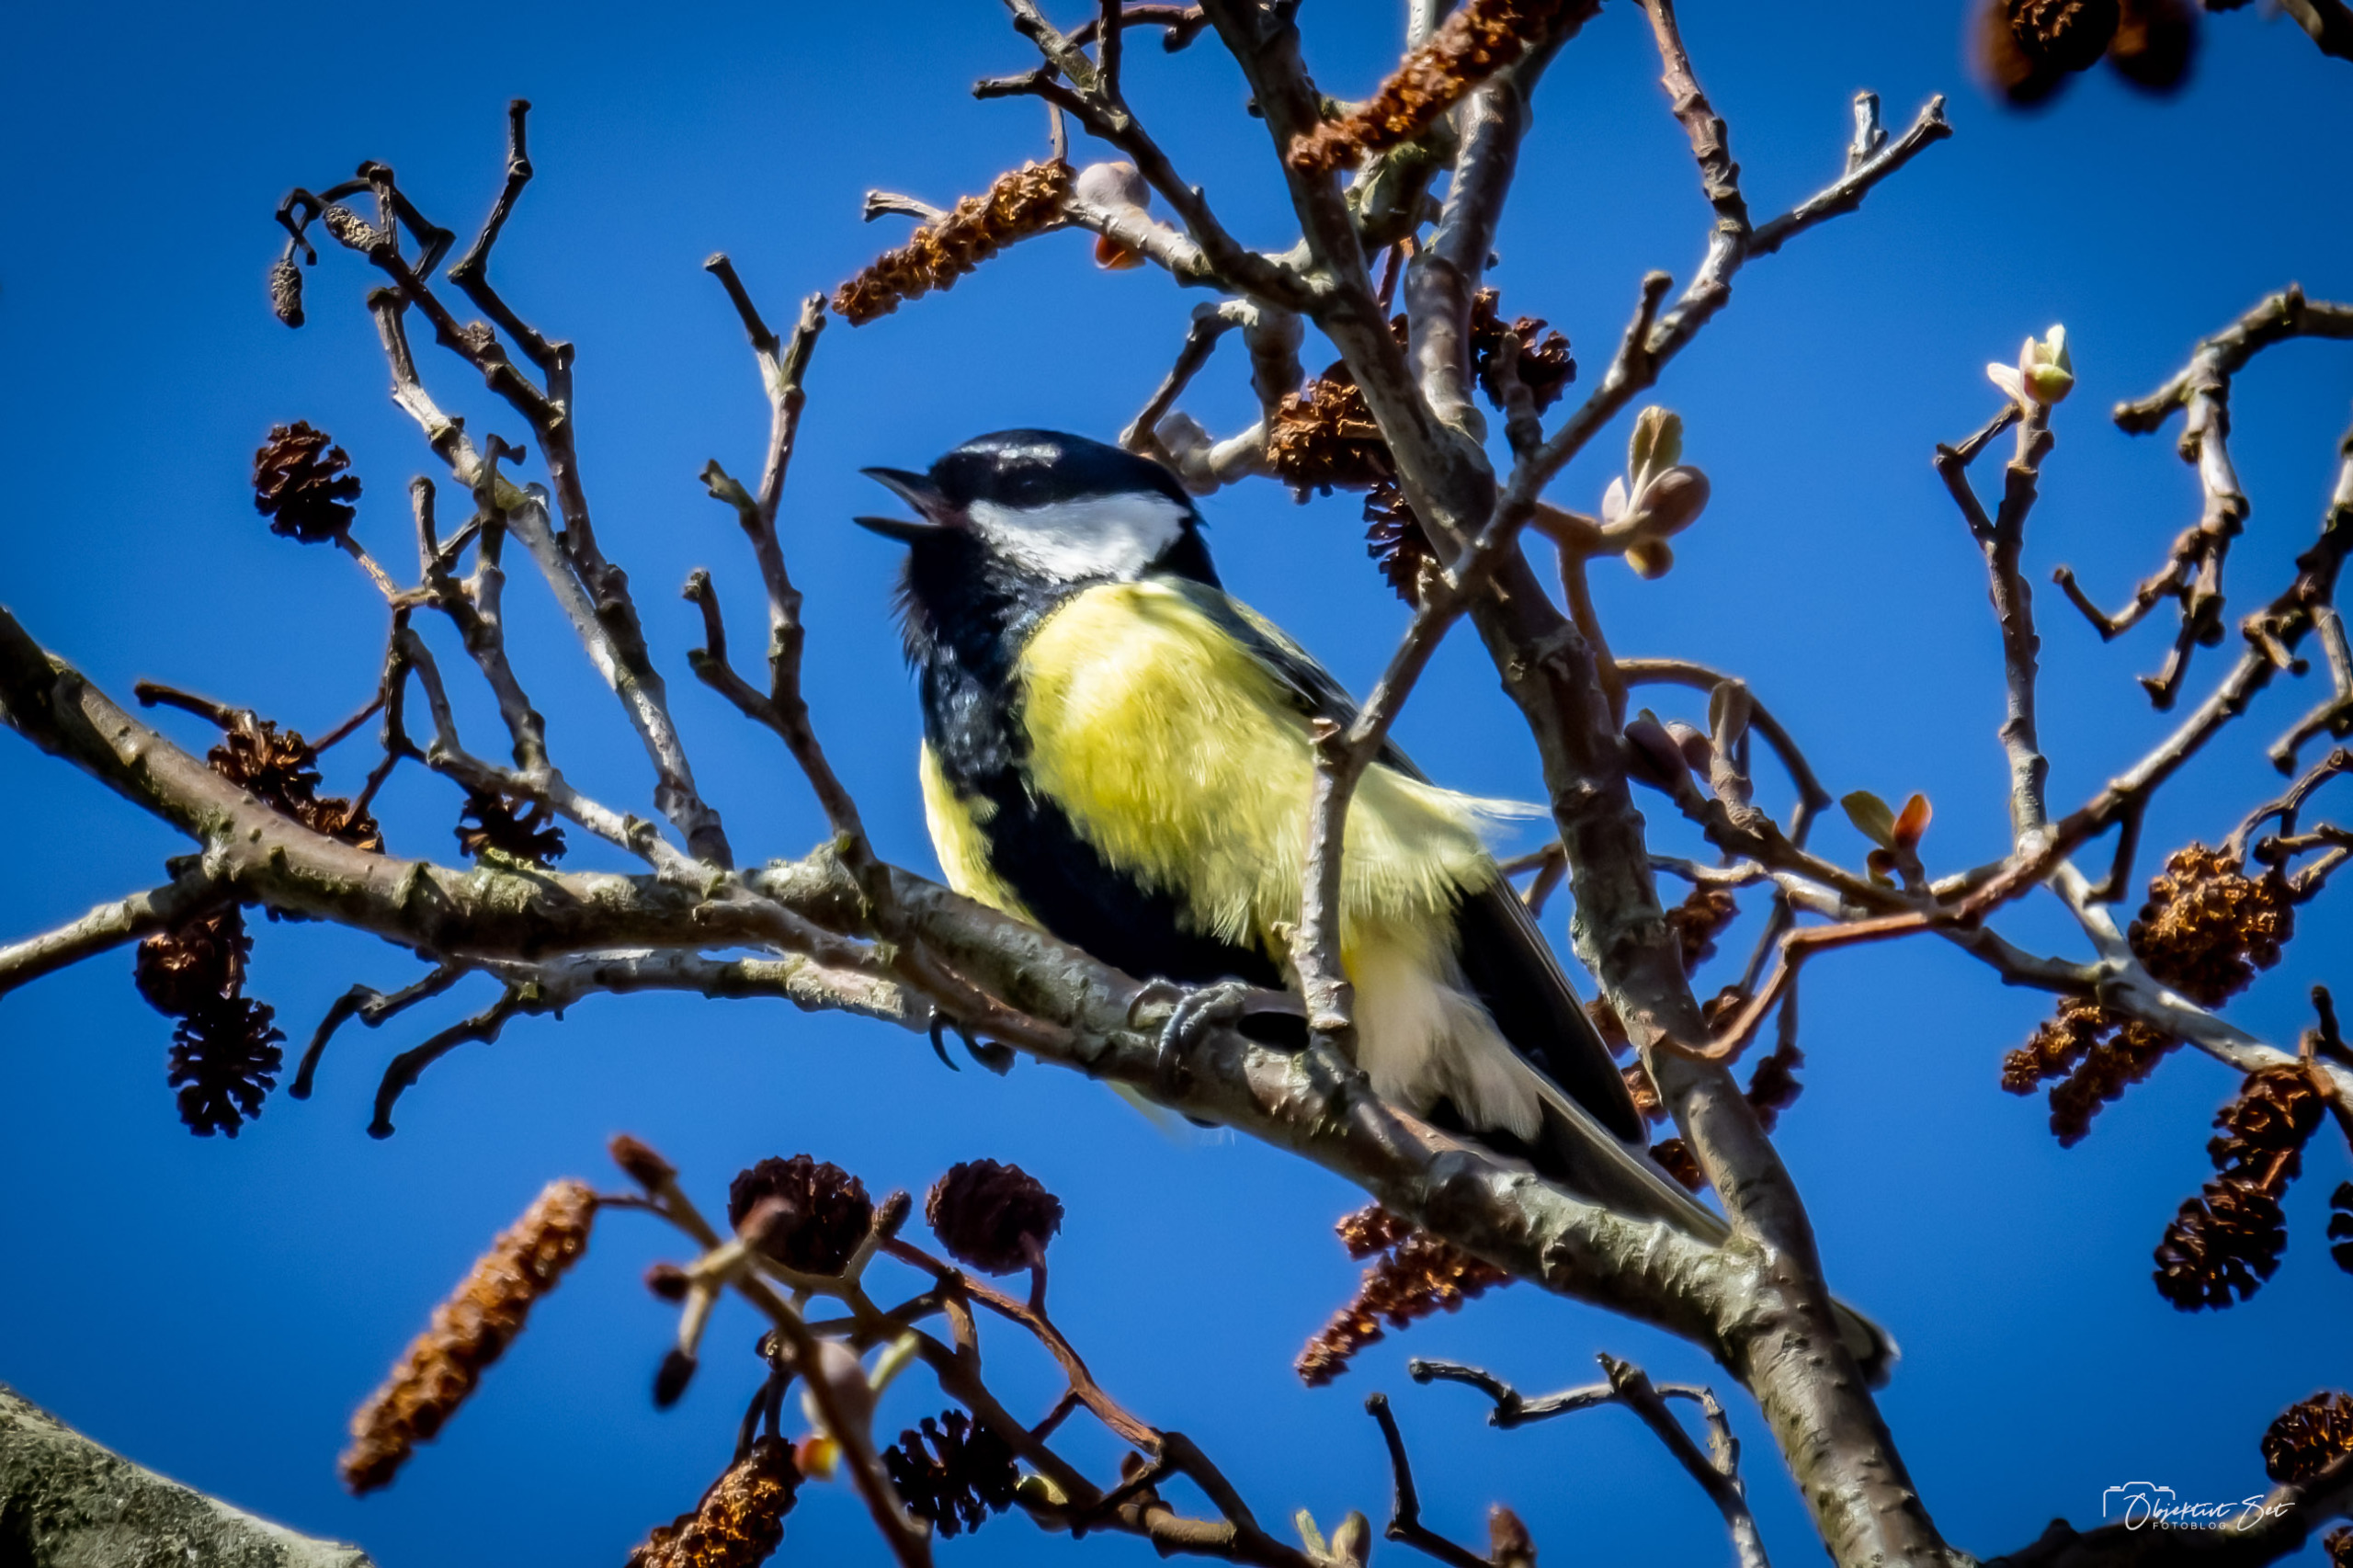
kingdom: Animalia
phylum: Chordata
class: Aves
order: Passeriformes
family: Paridae
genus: Parus
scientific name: Parus major
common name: Musvit
